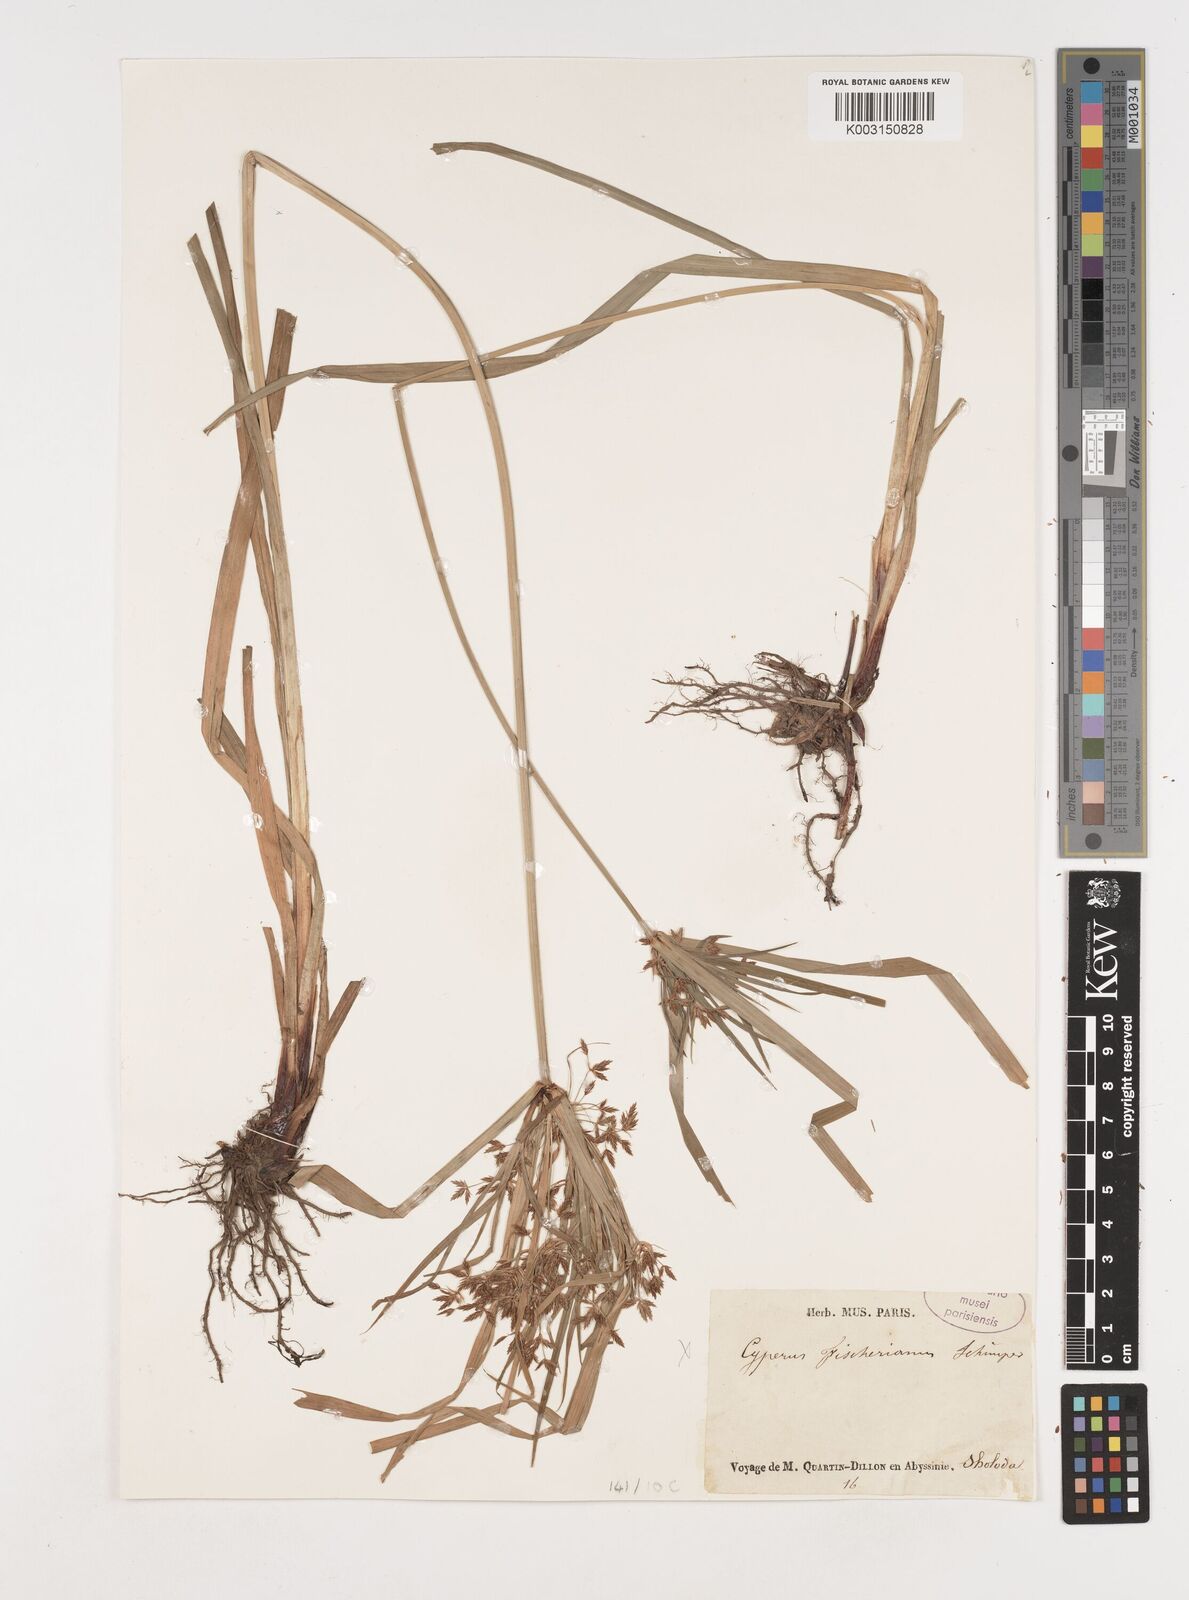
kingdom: Plantae
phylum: Tracheophyta
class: Liliopsida
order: Poales
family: Cyperaceae
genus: Cyperus
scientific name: Cyperus fischerianus
